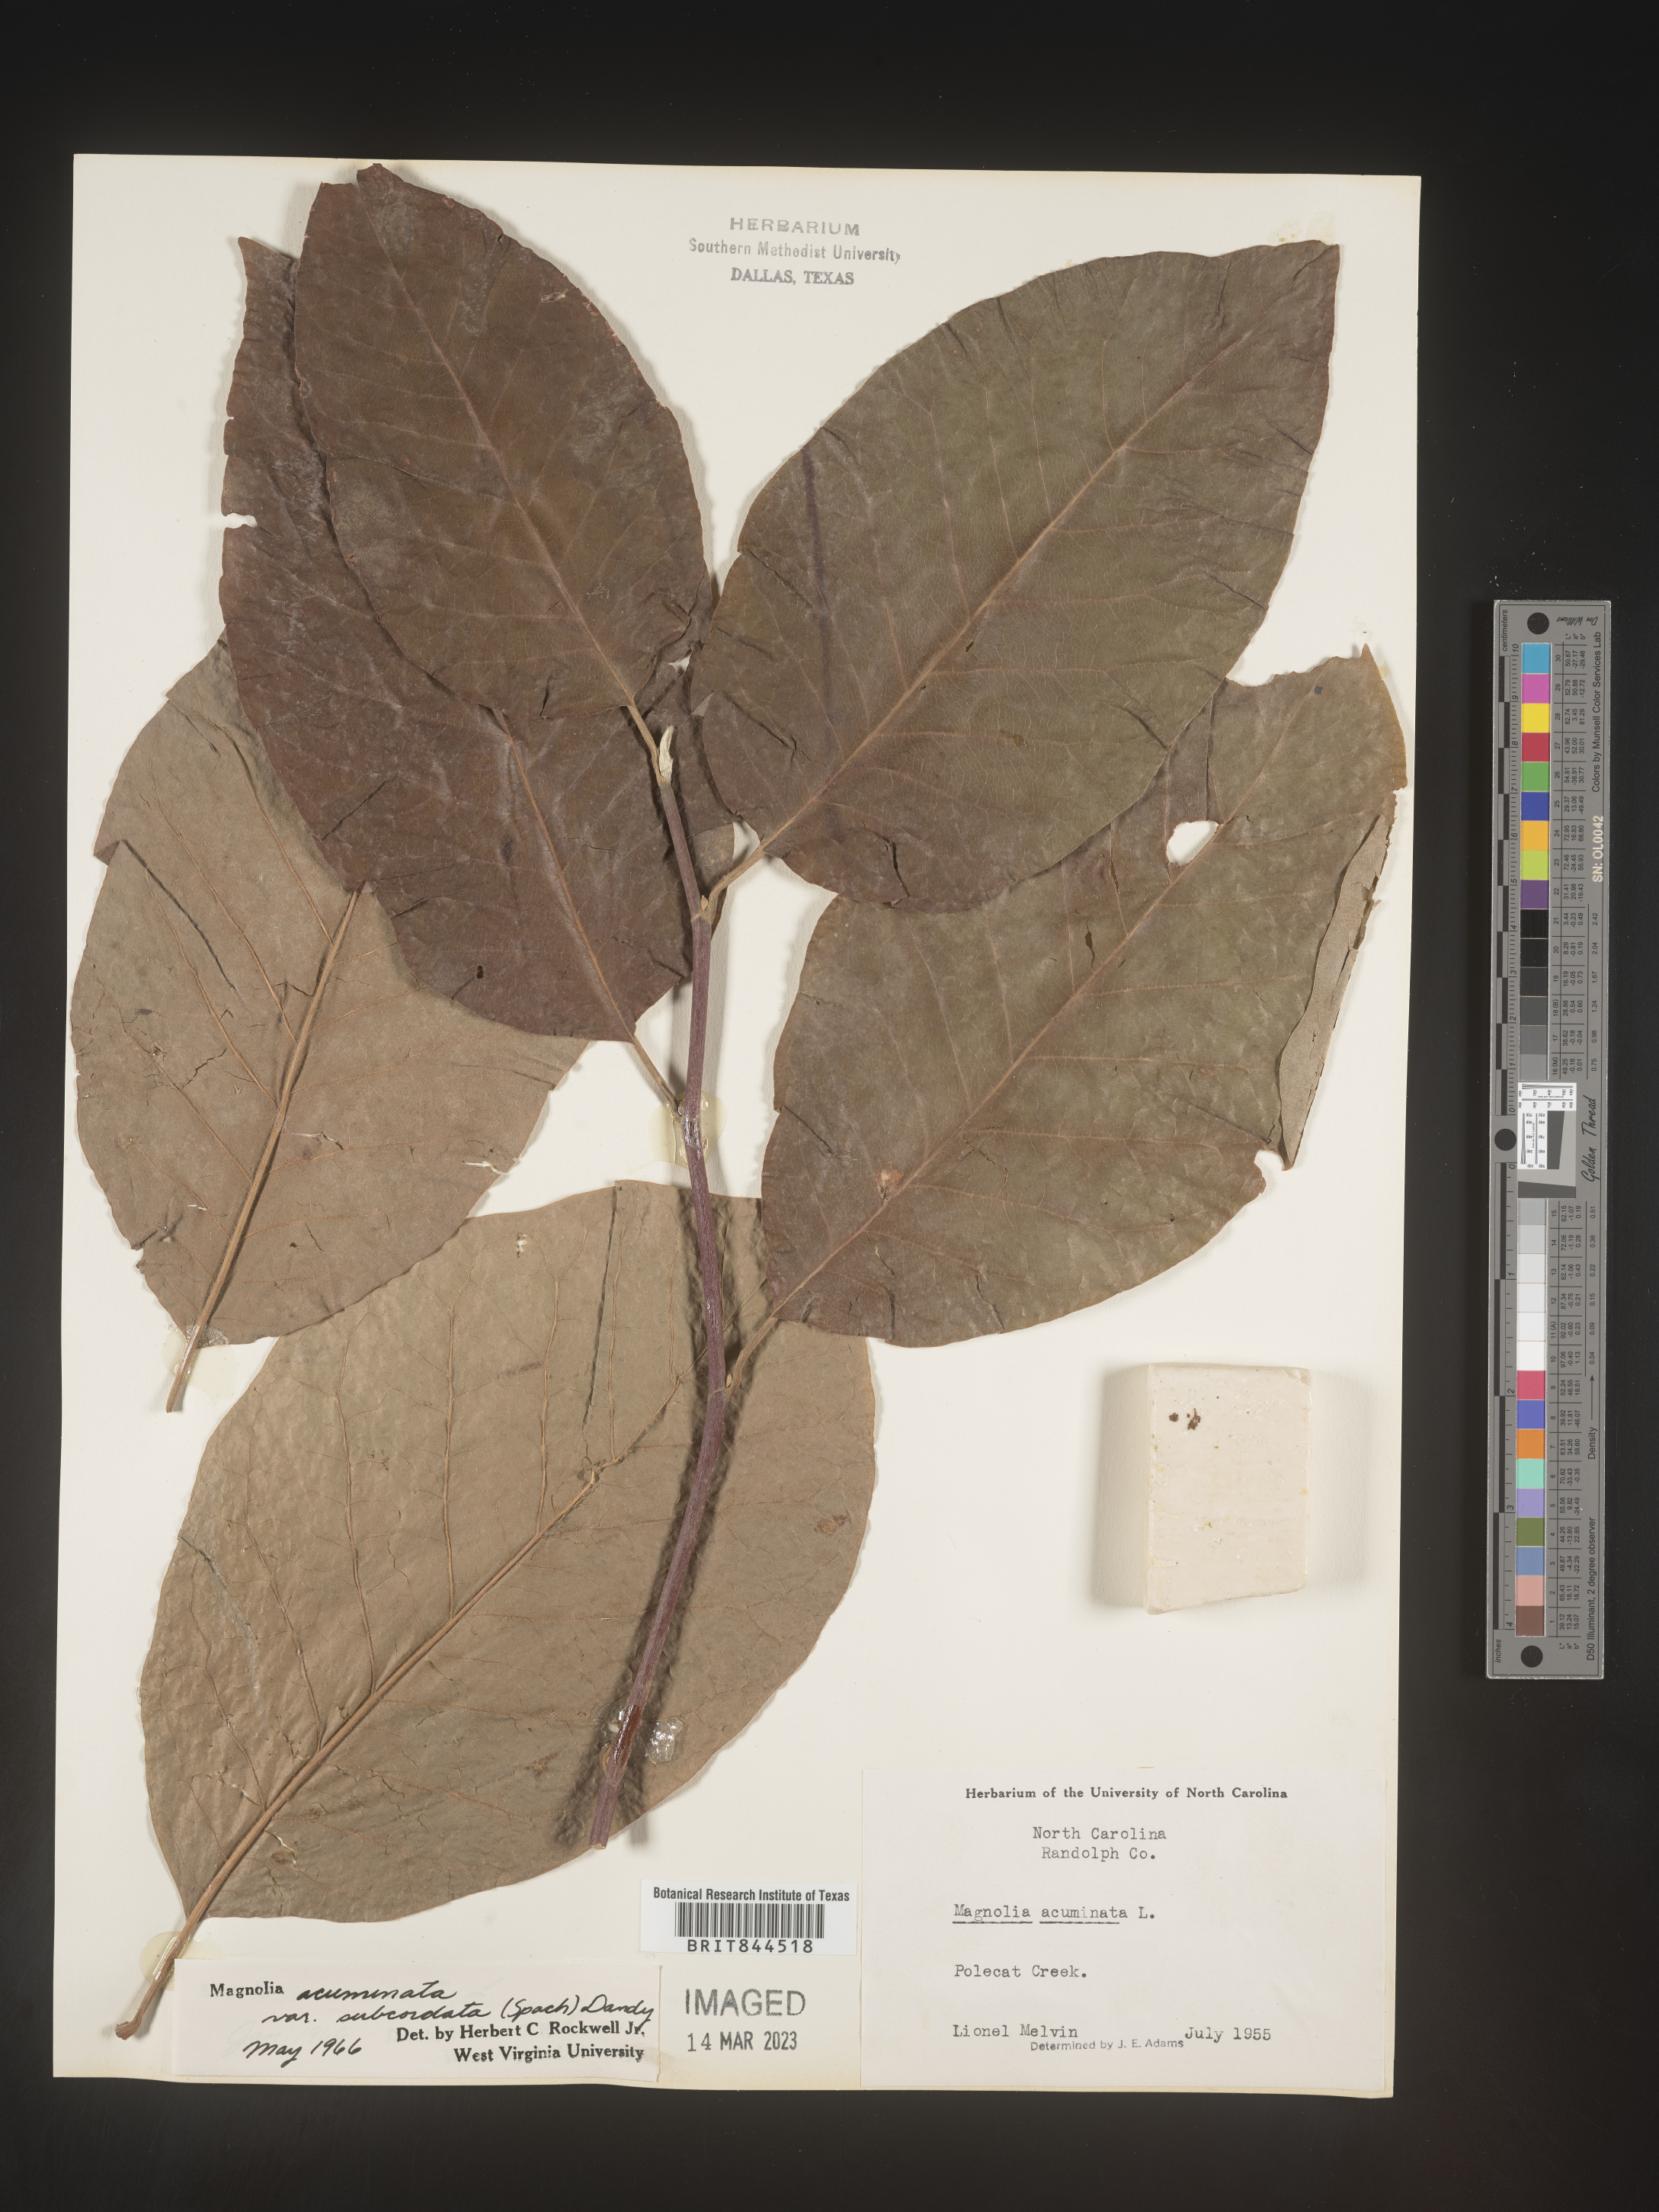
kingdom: Plantae
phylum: Tracheophyta
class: Magnoliopsida
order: Magnoliales
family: Magnoliaceae
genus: Magnolia
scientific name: Magnolia acuminata
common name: Cucumber magnolia
